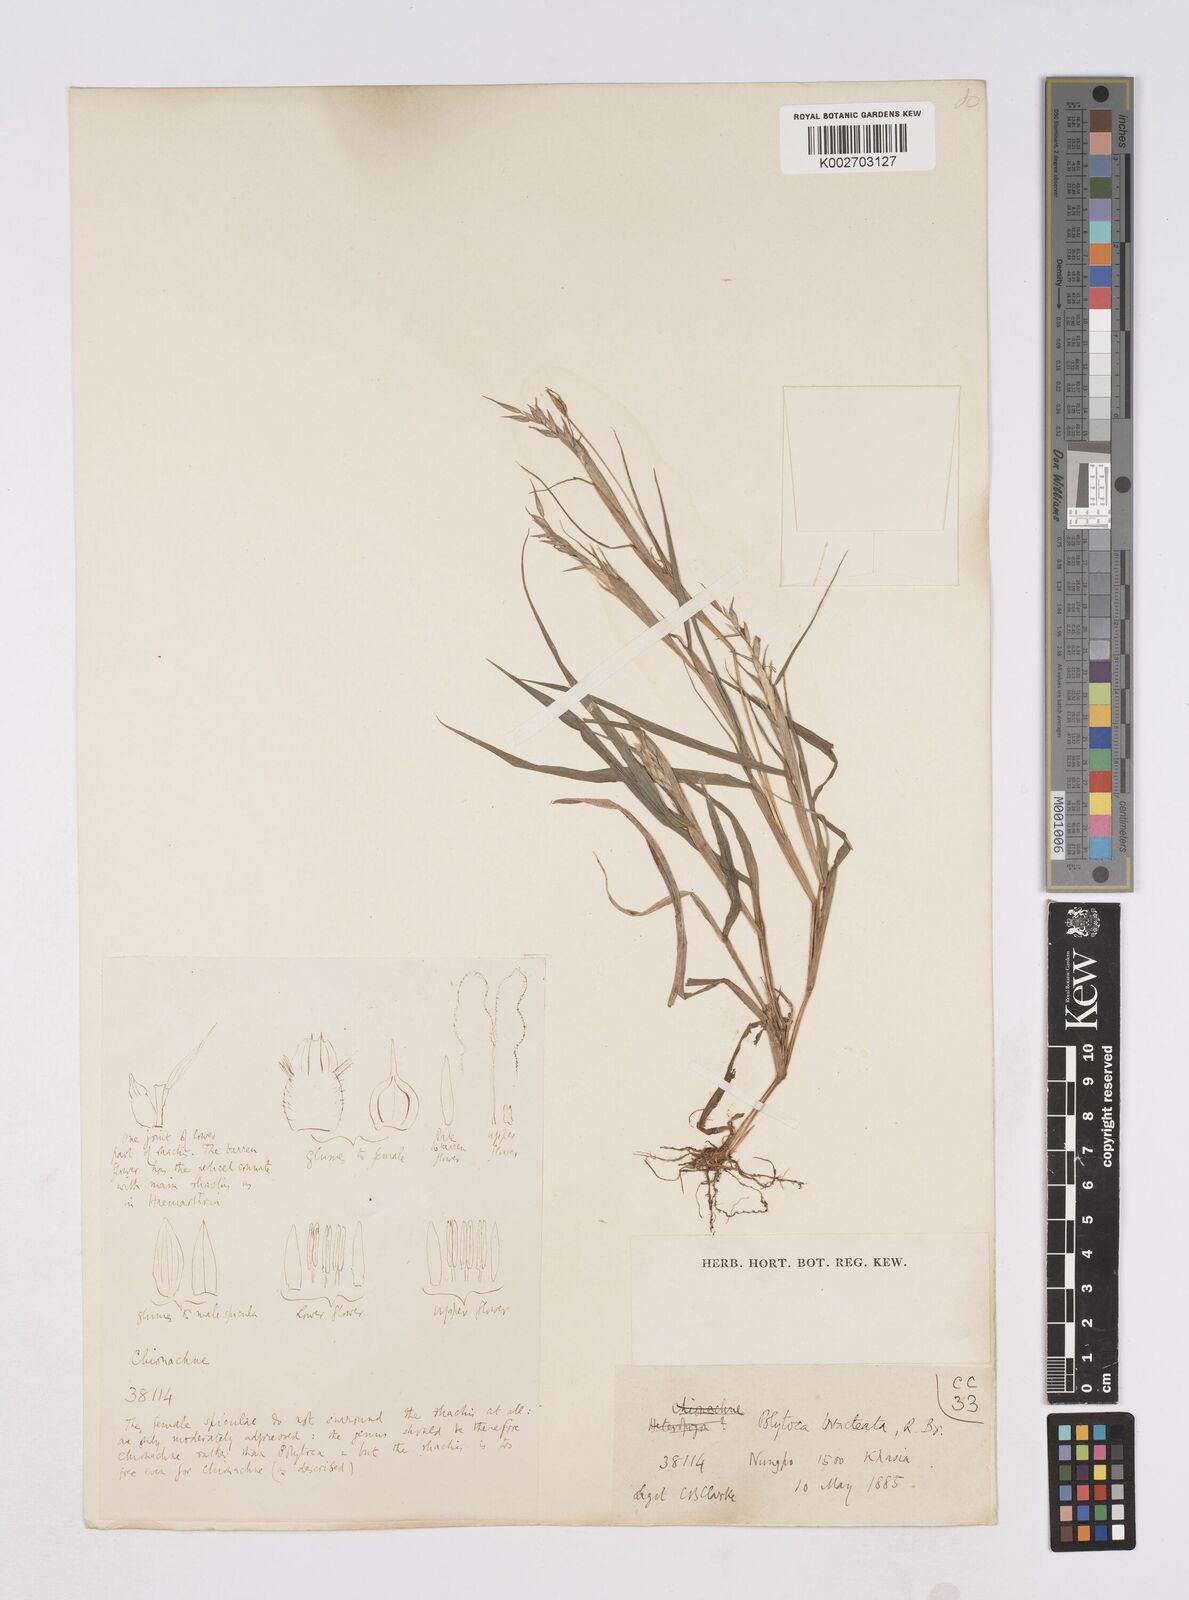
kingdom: Plantae
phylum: Tracheophyta
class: Liliopsida
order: Poales
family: Poaceae
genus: Polytoca
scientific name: Polytoca digitata
